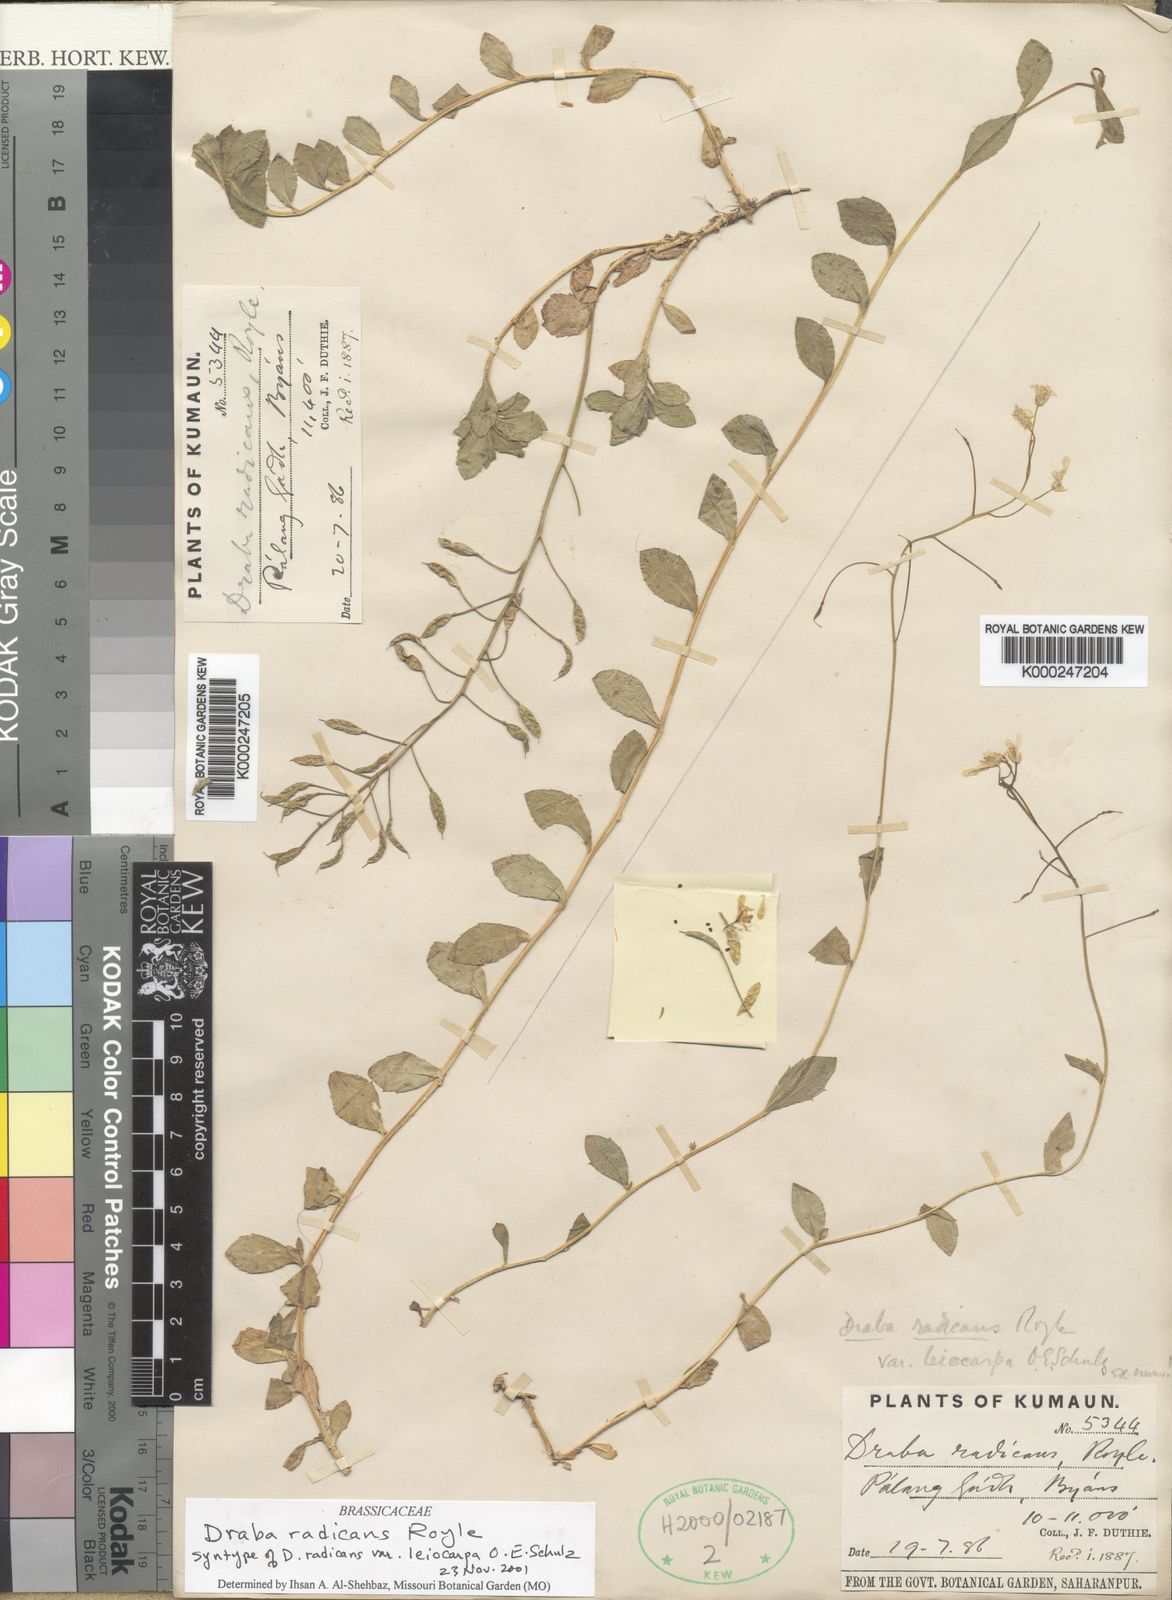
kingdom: Plantae
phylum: Tracheophyta
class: Magnoliopsida
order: Brassicales
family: Brassicaceae
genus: Draba
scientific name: Draba radicans
